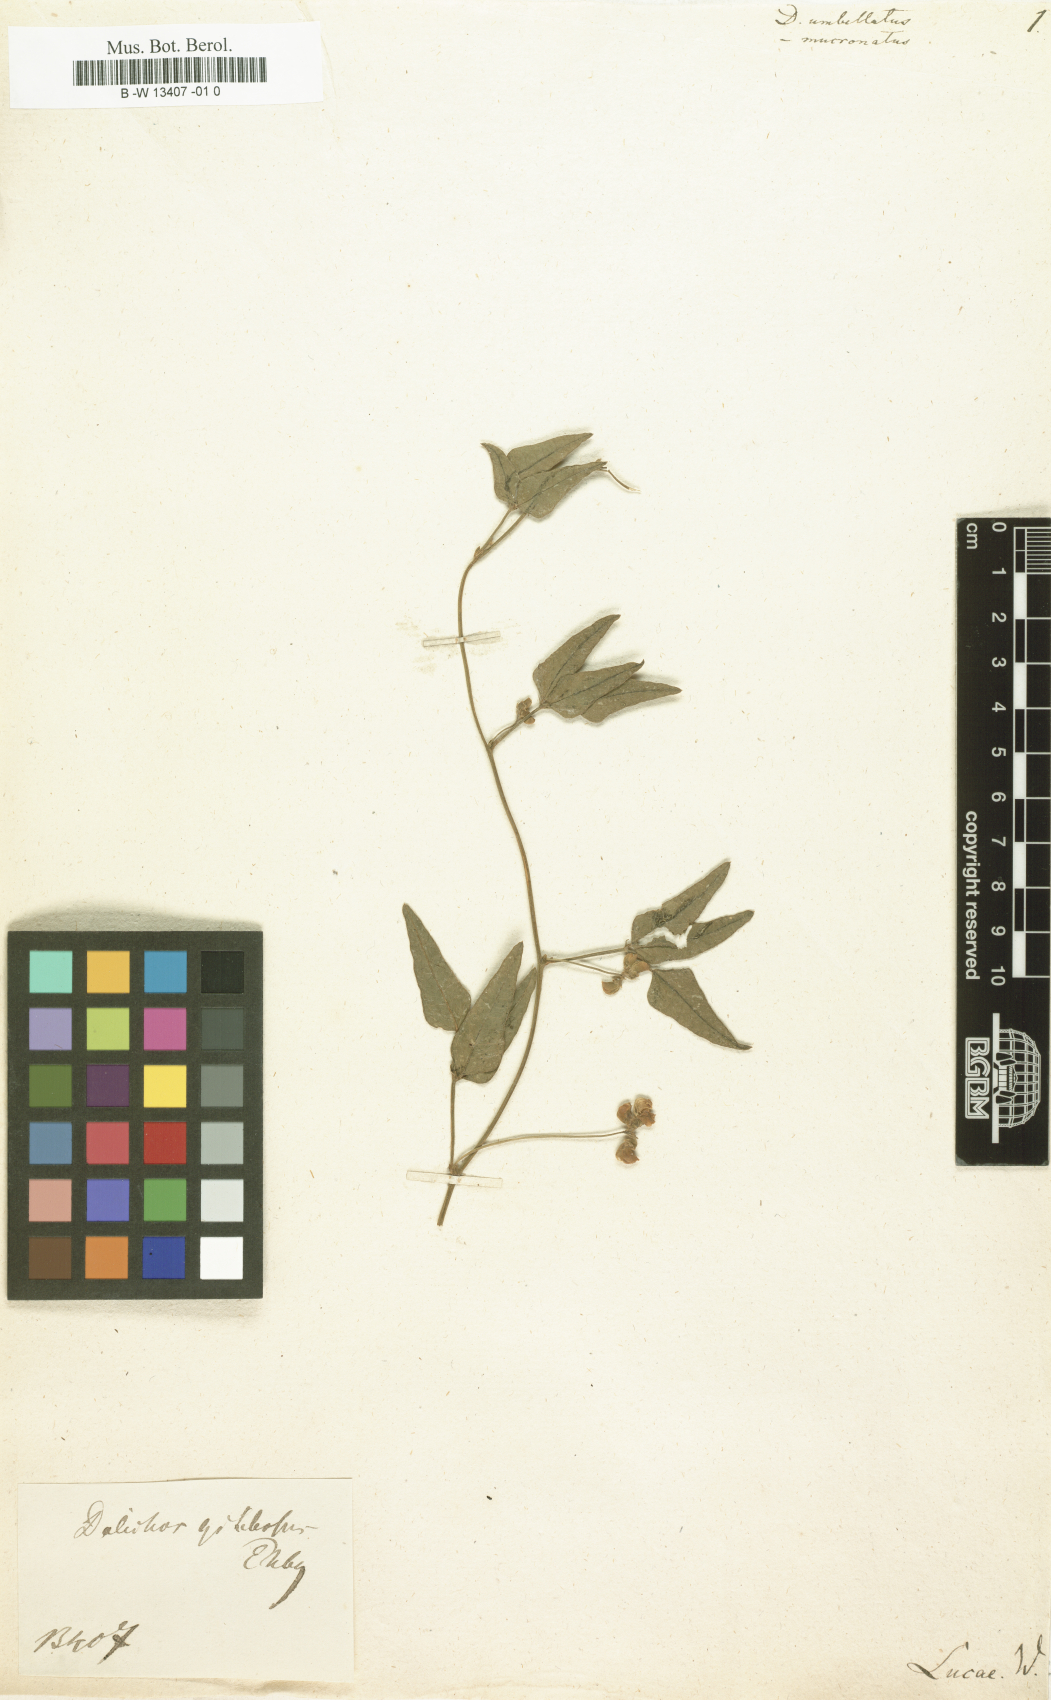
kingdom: Plantae
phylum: Tracheophyta
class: Magnoliopsida
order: Fabales
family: Fabaceae
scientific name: Fabaceae
